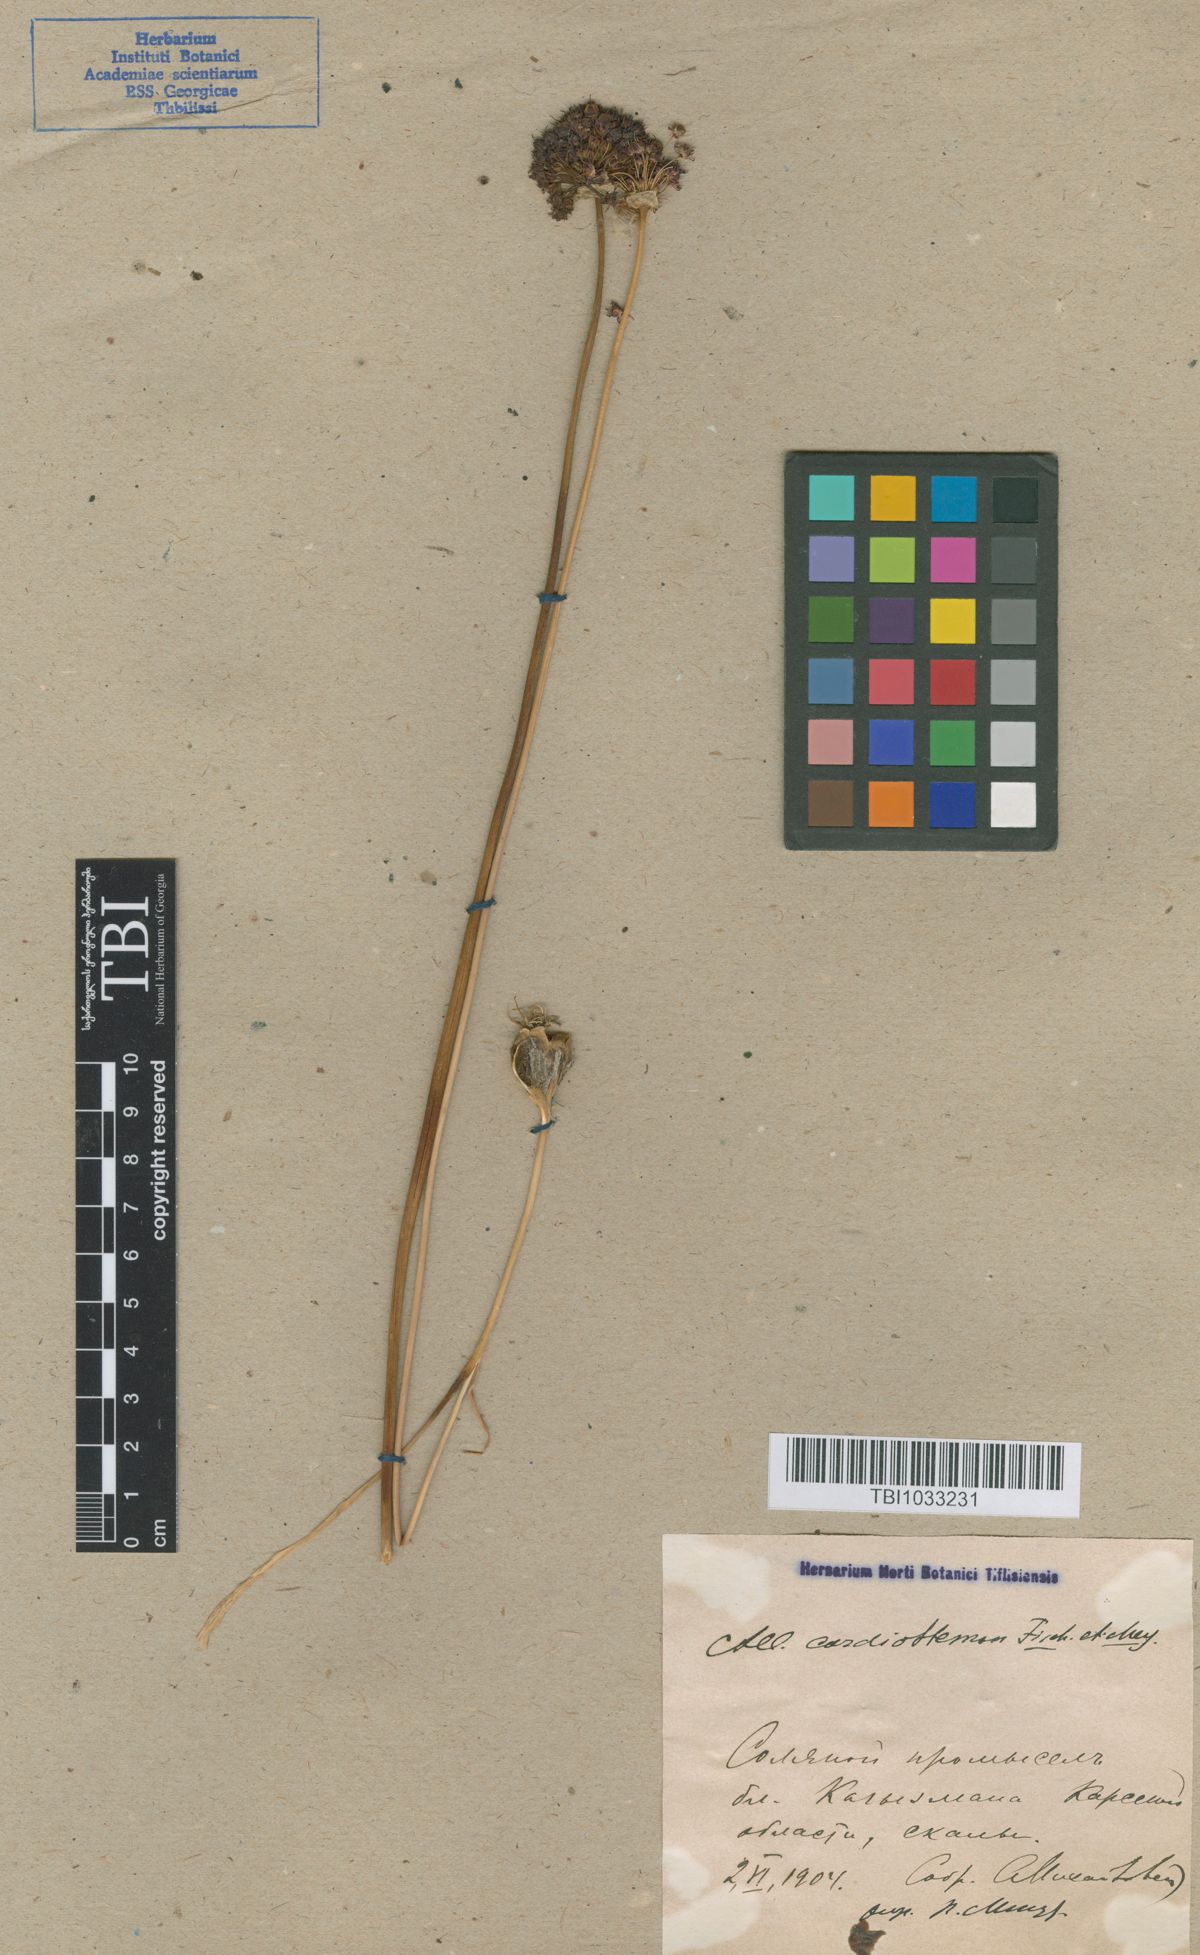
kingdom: Plantae
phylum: Tracheophyta
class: Liliopsida
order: Asparagales
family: Amaryllidaceae
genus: Allium
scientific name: Allium cardiostemon
